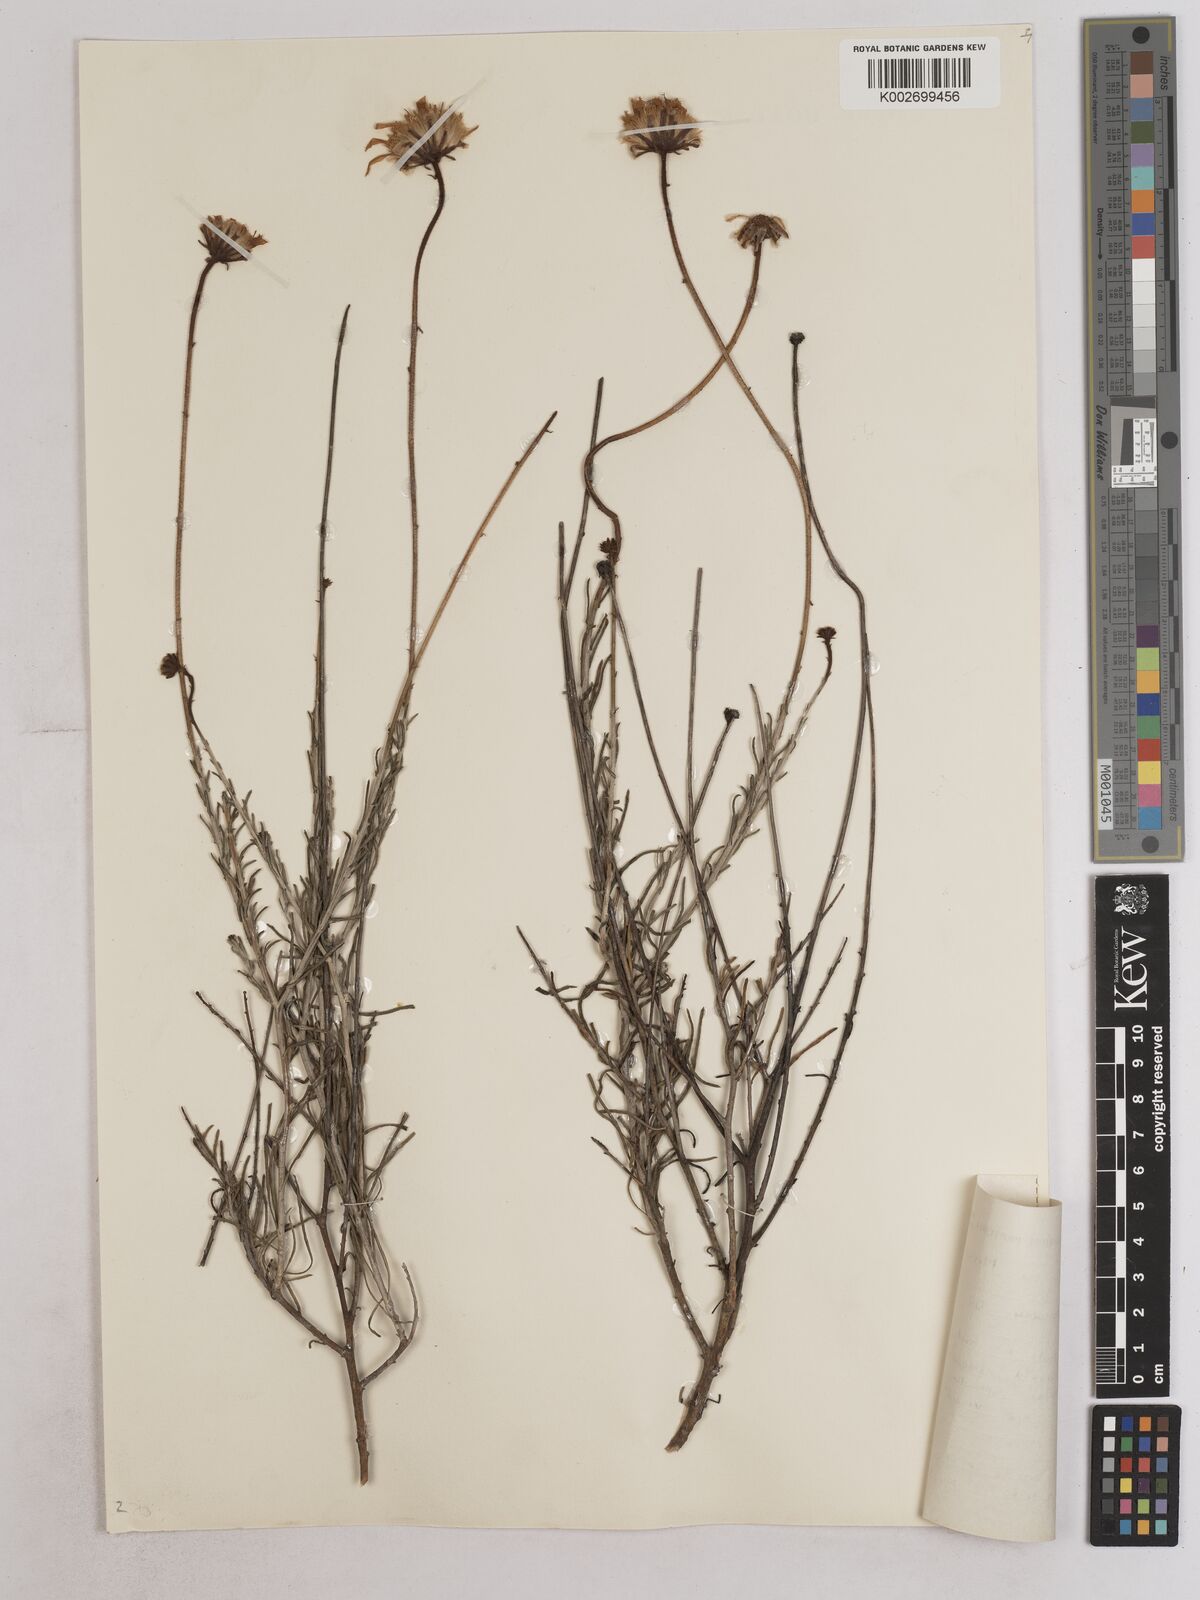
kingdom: Plantae
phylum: Tracheophyta
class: Magnoliopsida
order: Asterales
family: Asteraceae
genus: Heterolepis
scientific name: Heterolepis peduncularis
